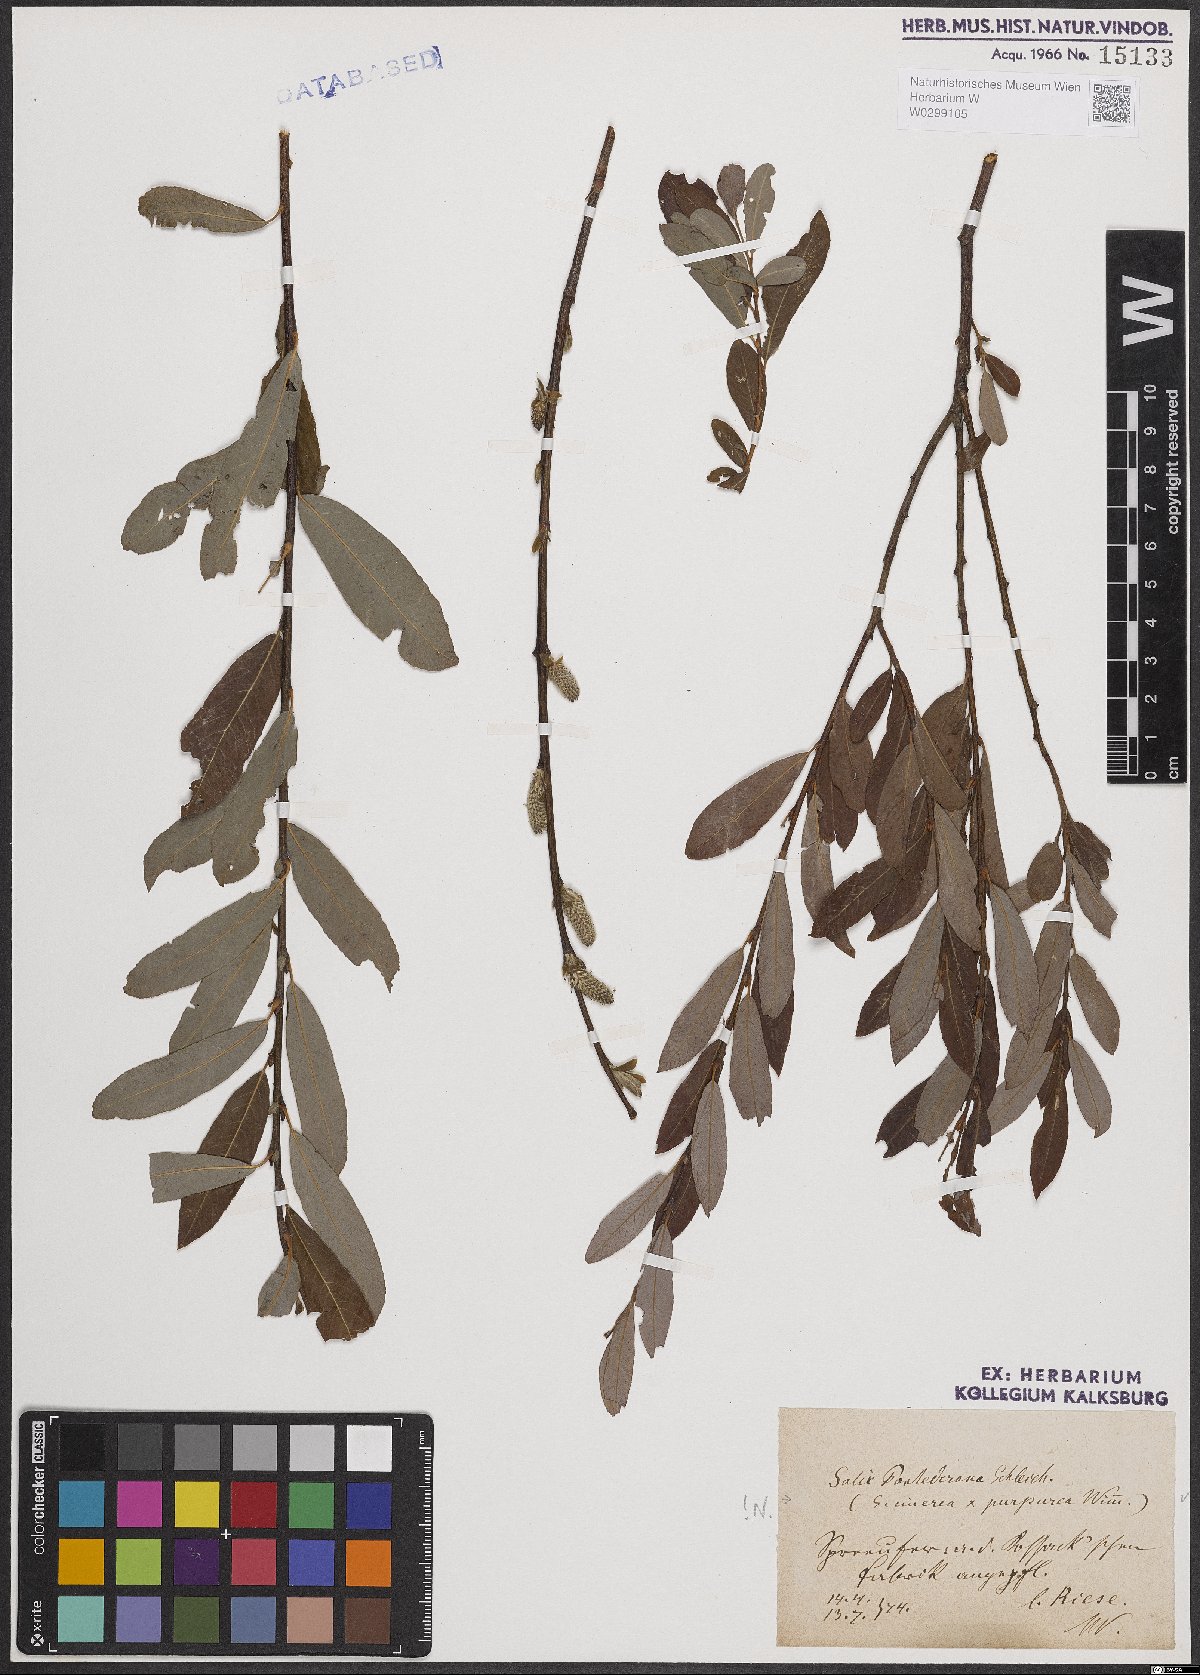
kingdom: Plantae
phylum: Tracheophyta
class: Magnoliopsida
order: Malpighiales
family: Salicaceae
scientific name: Salicaceae
